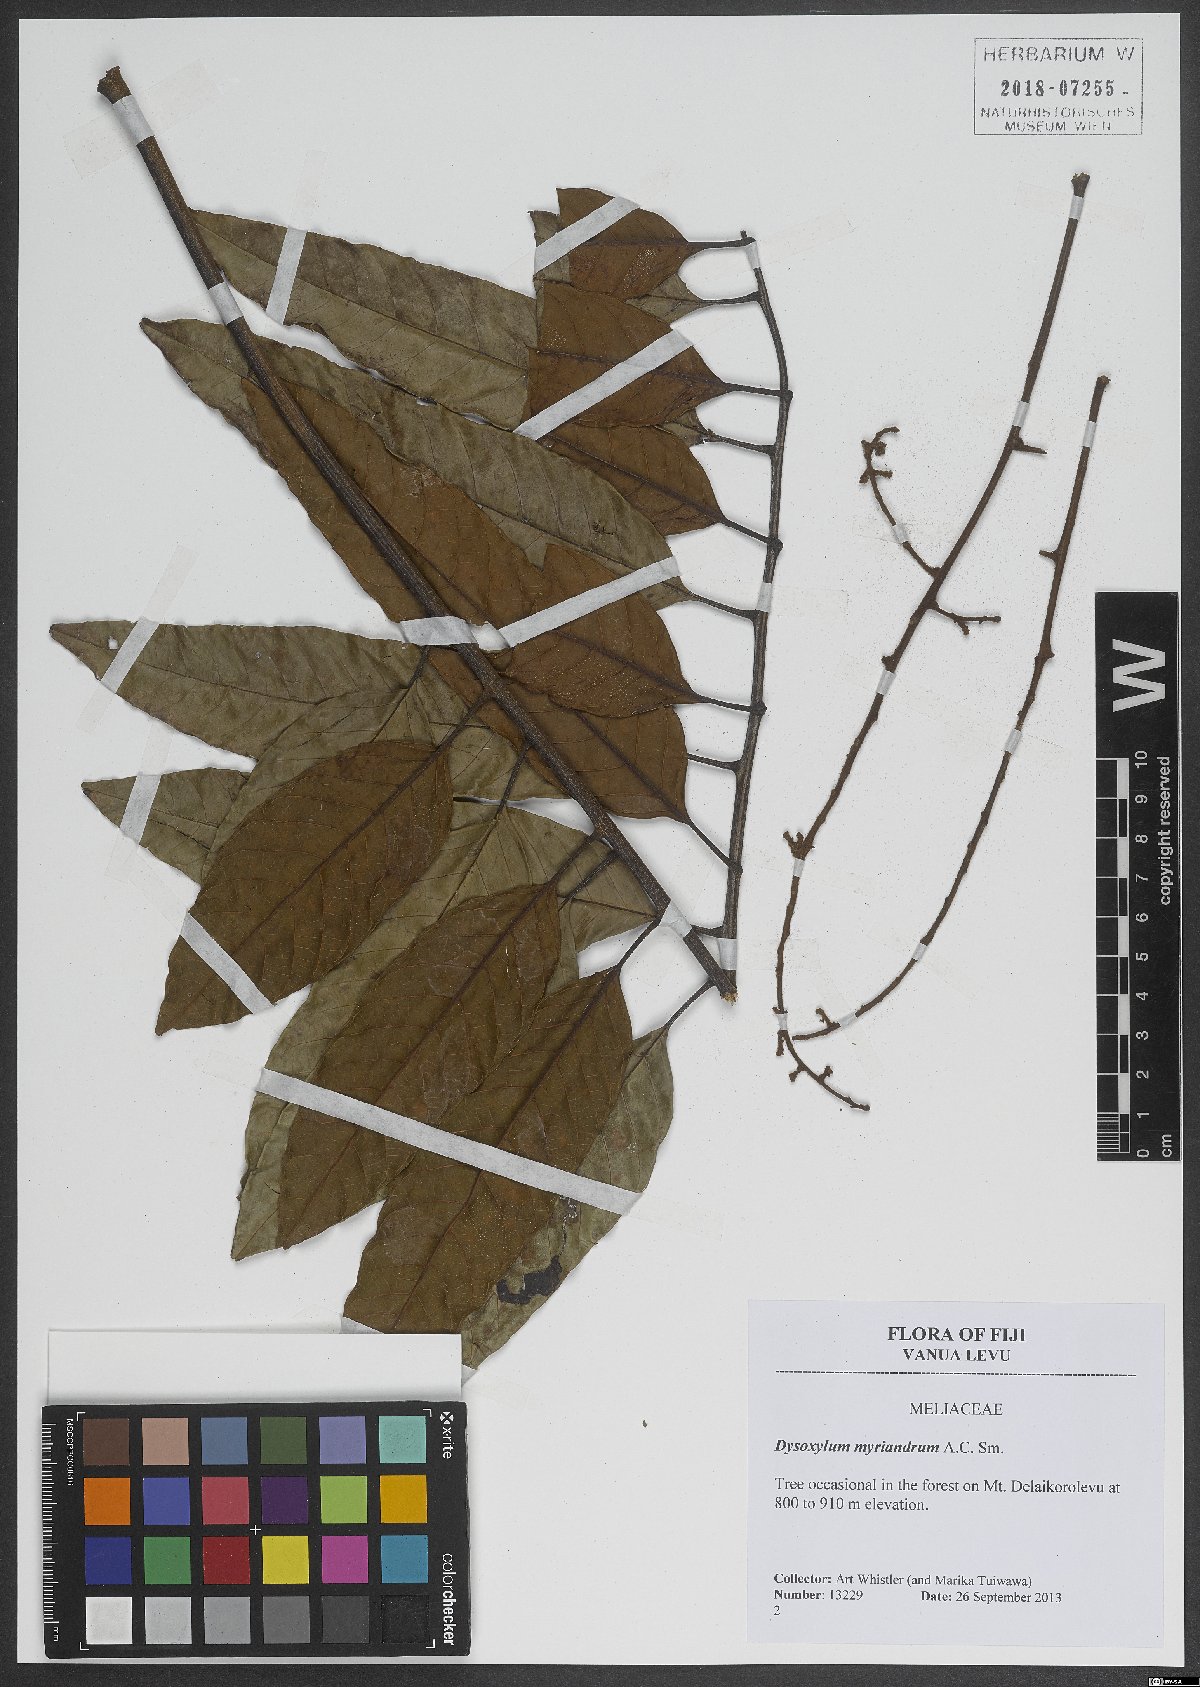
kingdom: Plantae
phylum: Tracheophyta
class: Magnoliopsida
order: Sapindales
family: Meliaceae
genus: Didymocheton
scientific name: Didymocheton myriandrus
